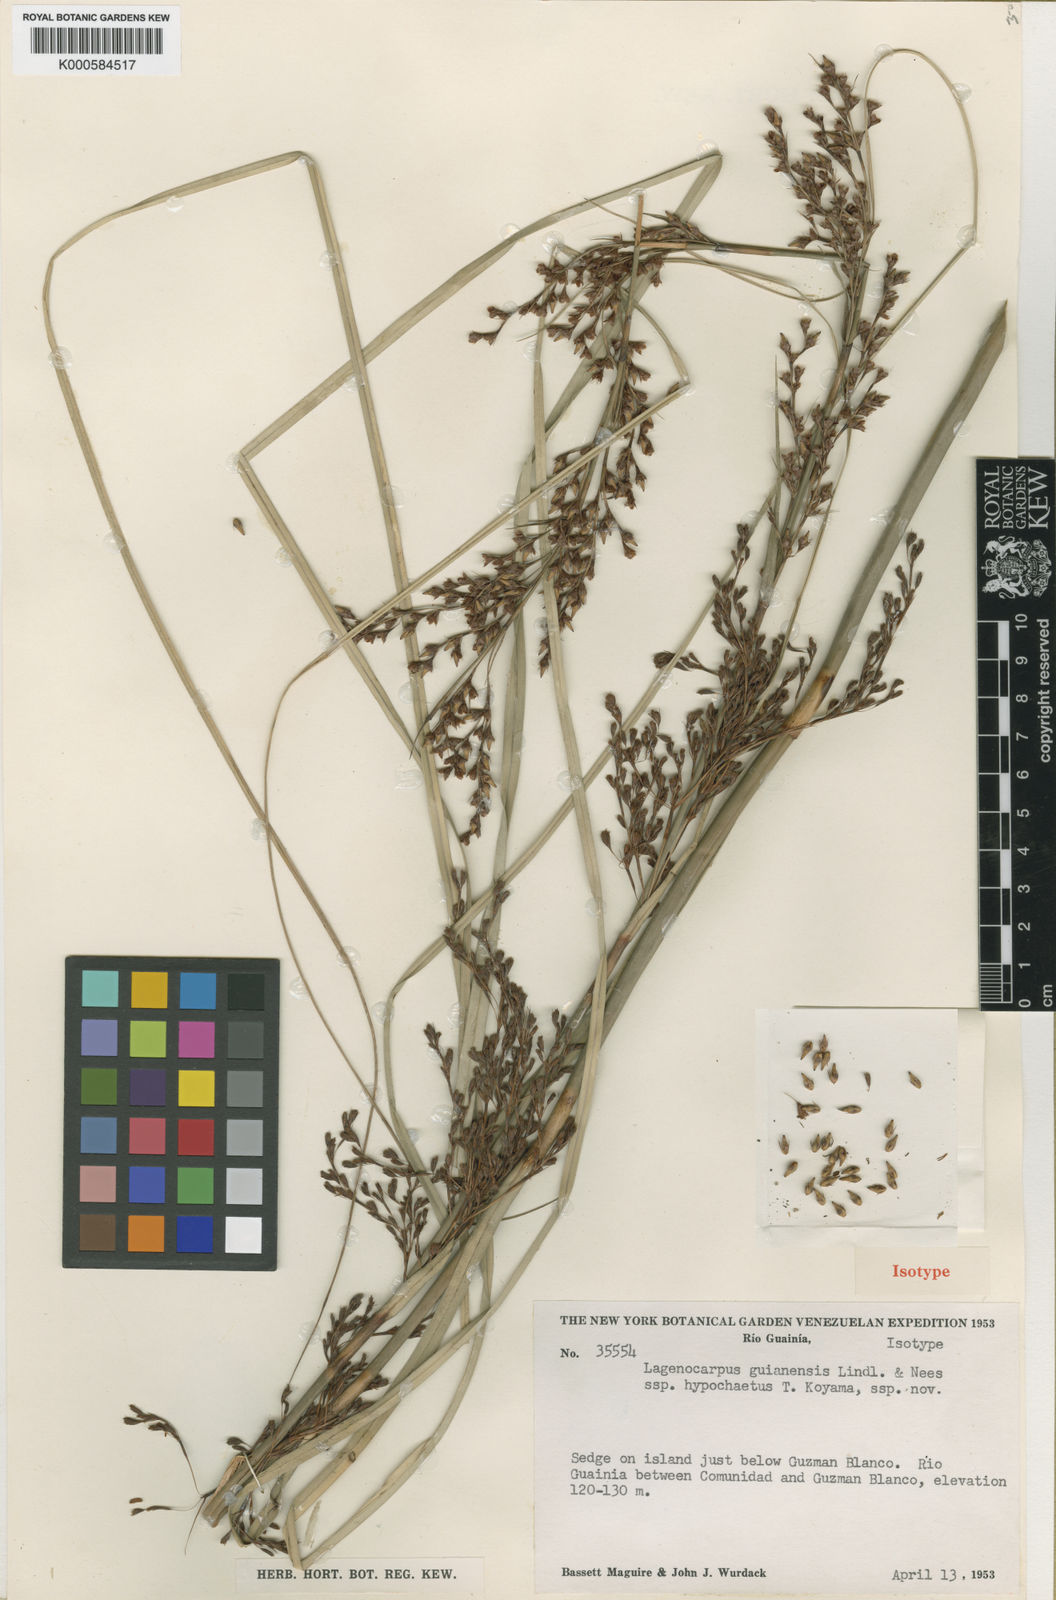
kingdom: Plantae
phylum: Tracheophyta
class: Liliopsida
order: Poales
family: Cyperaceae
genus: Lagenocarpus
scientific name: Lagenocarpus guianensis
